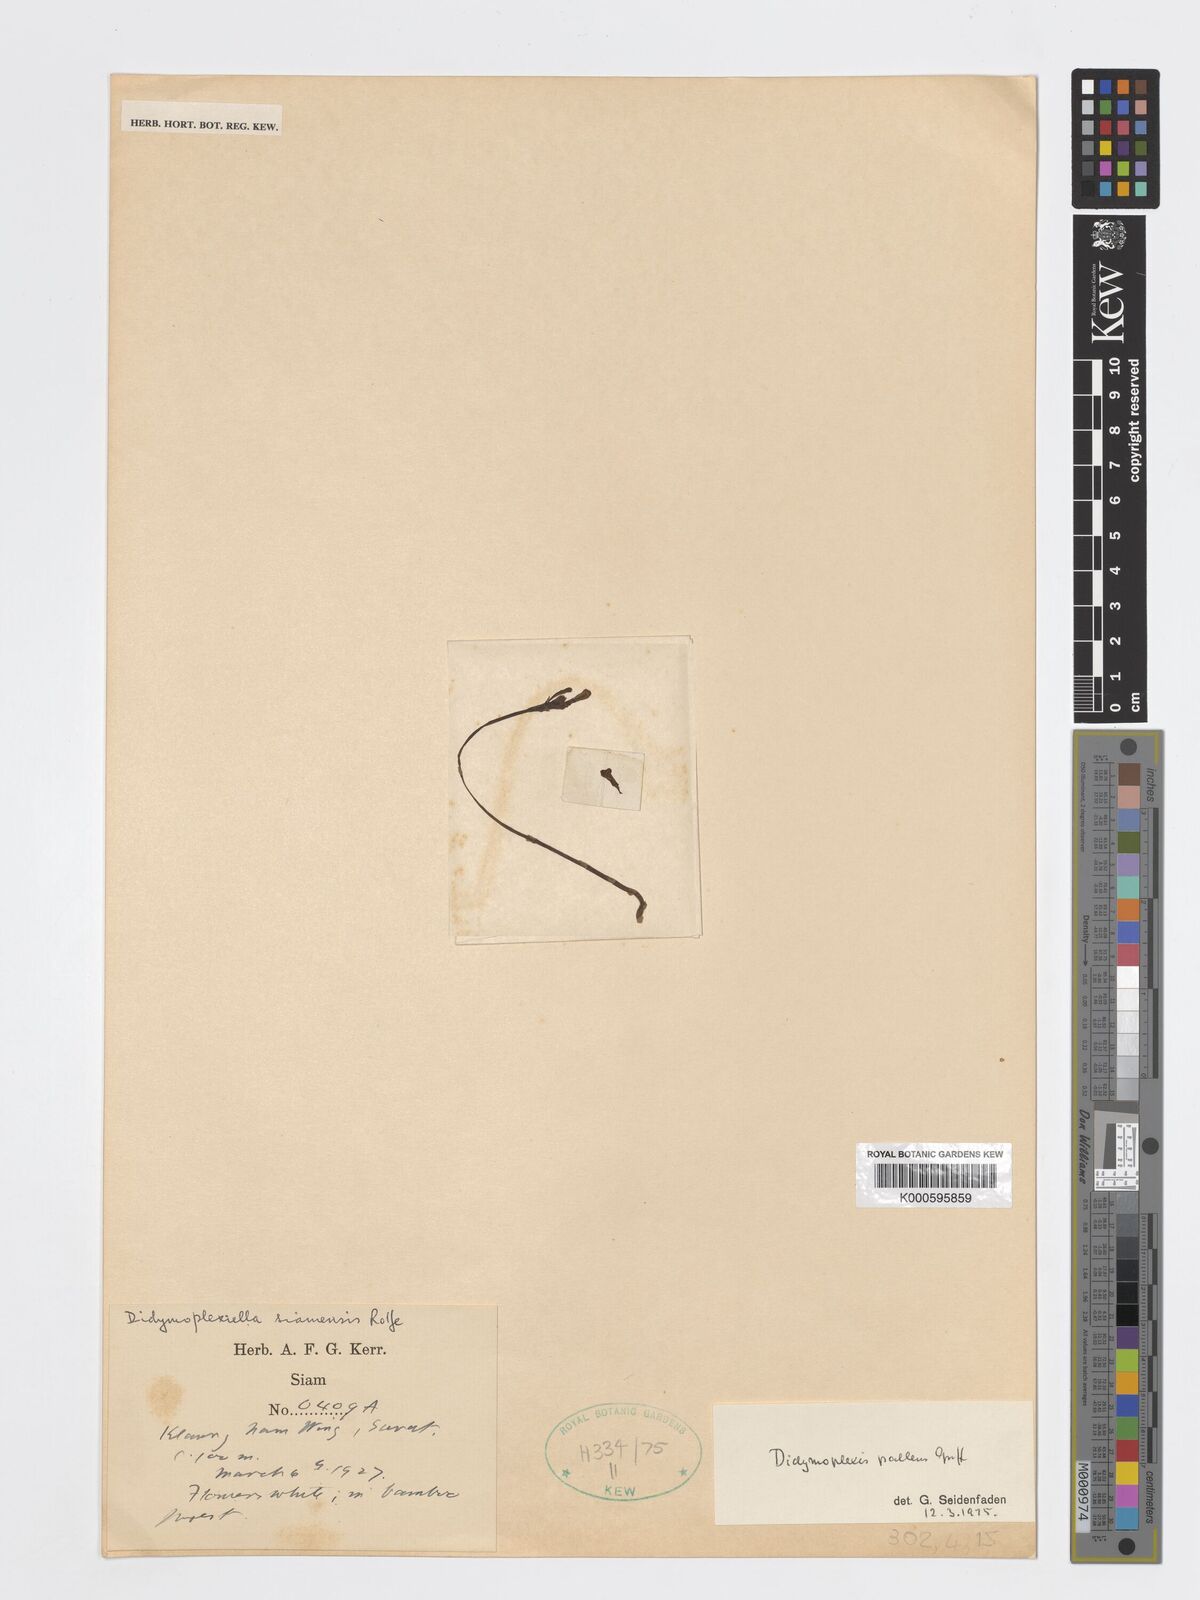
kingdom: Plantae
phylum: Tracheophyta
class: Liliopsida
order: Asparagales
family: Orchidaceae
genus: Didymoplexis
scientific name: Didymoplexis pallens
